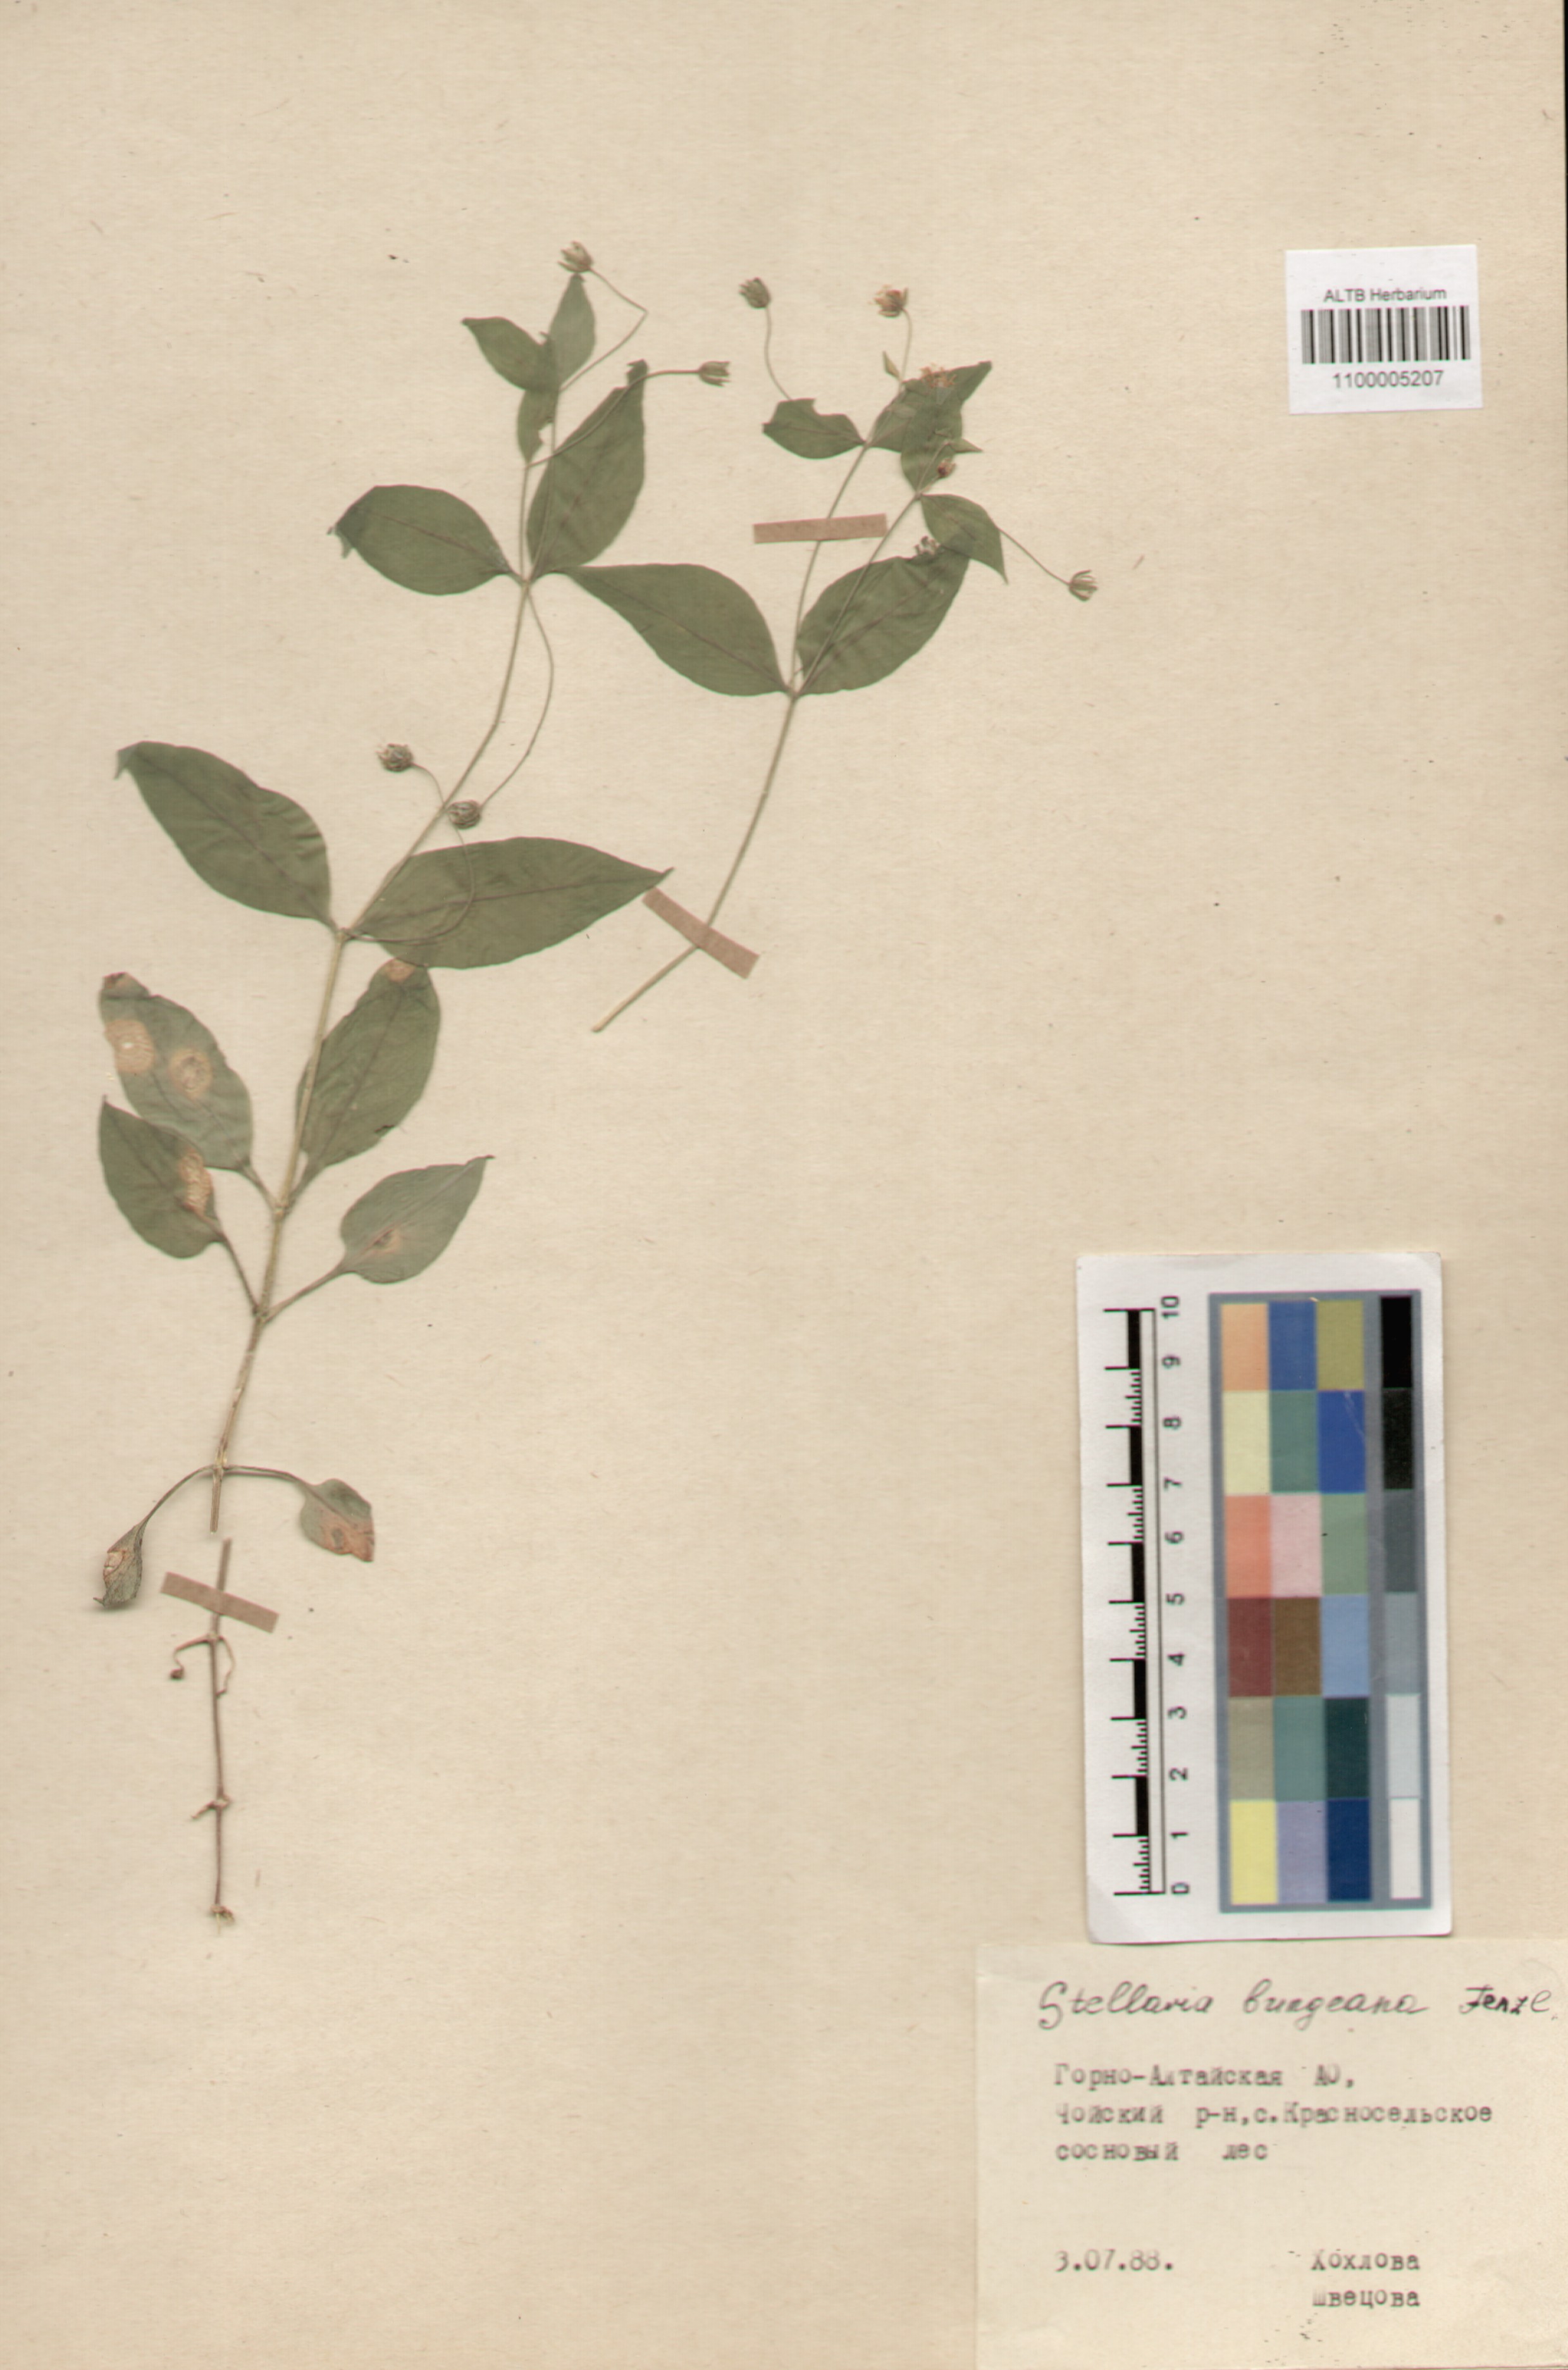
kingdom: Plantae
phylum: Tracheophyta
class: Magnoliopsida
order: Caryophyllales
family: Caryophyllaceae
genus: Stellaria
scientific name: Stellaria bungeana
